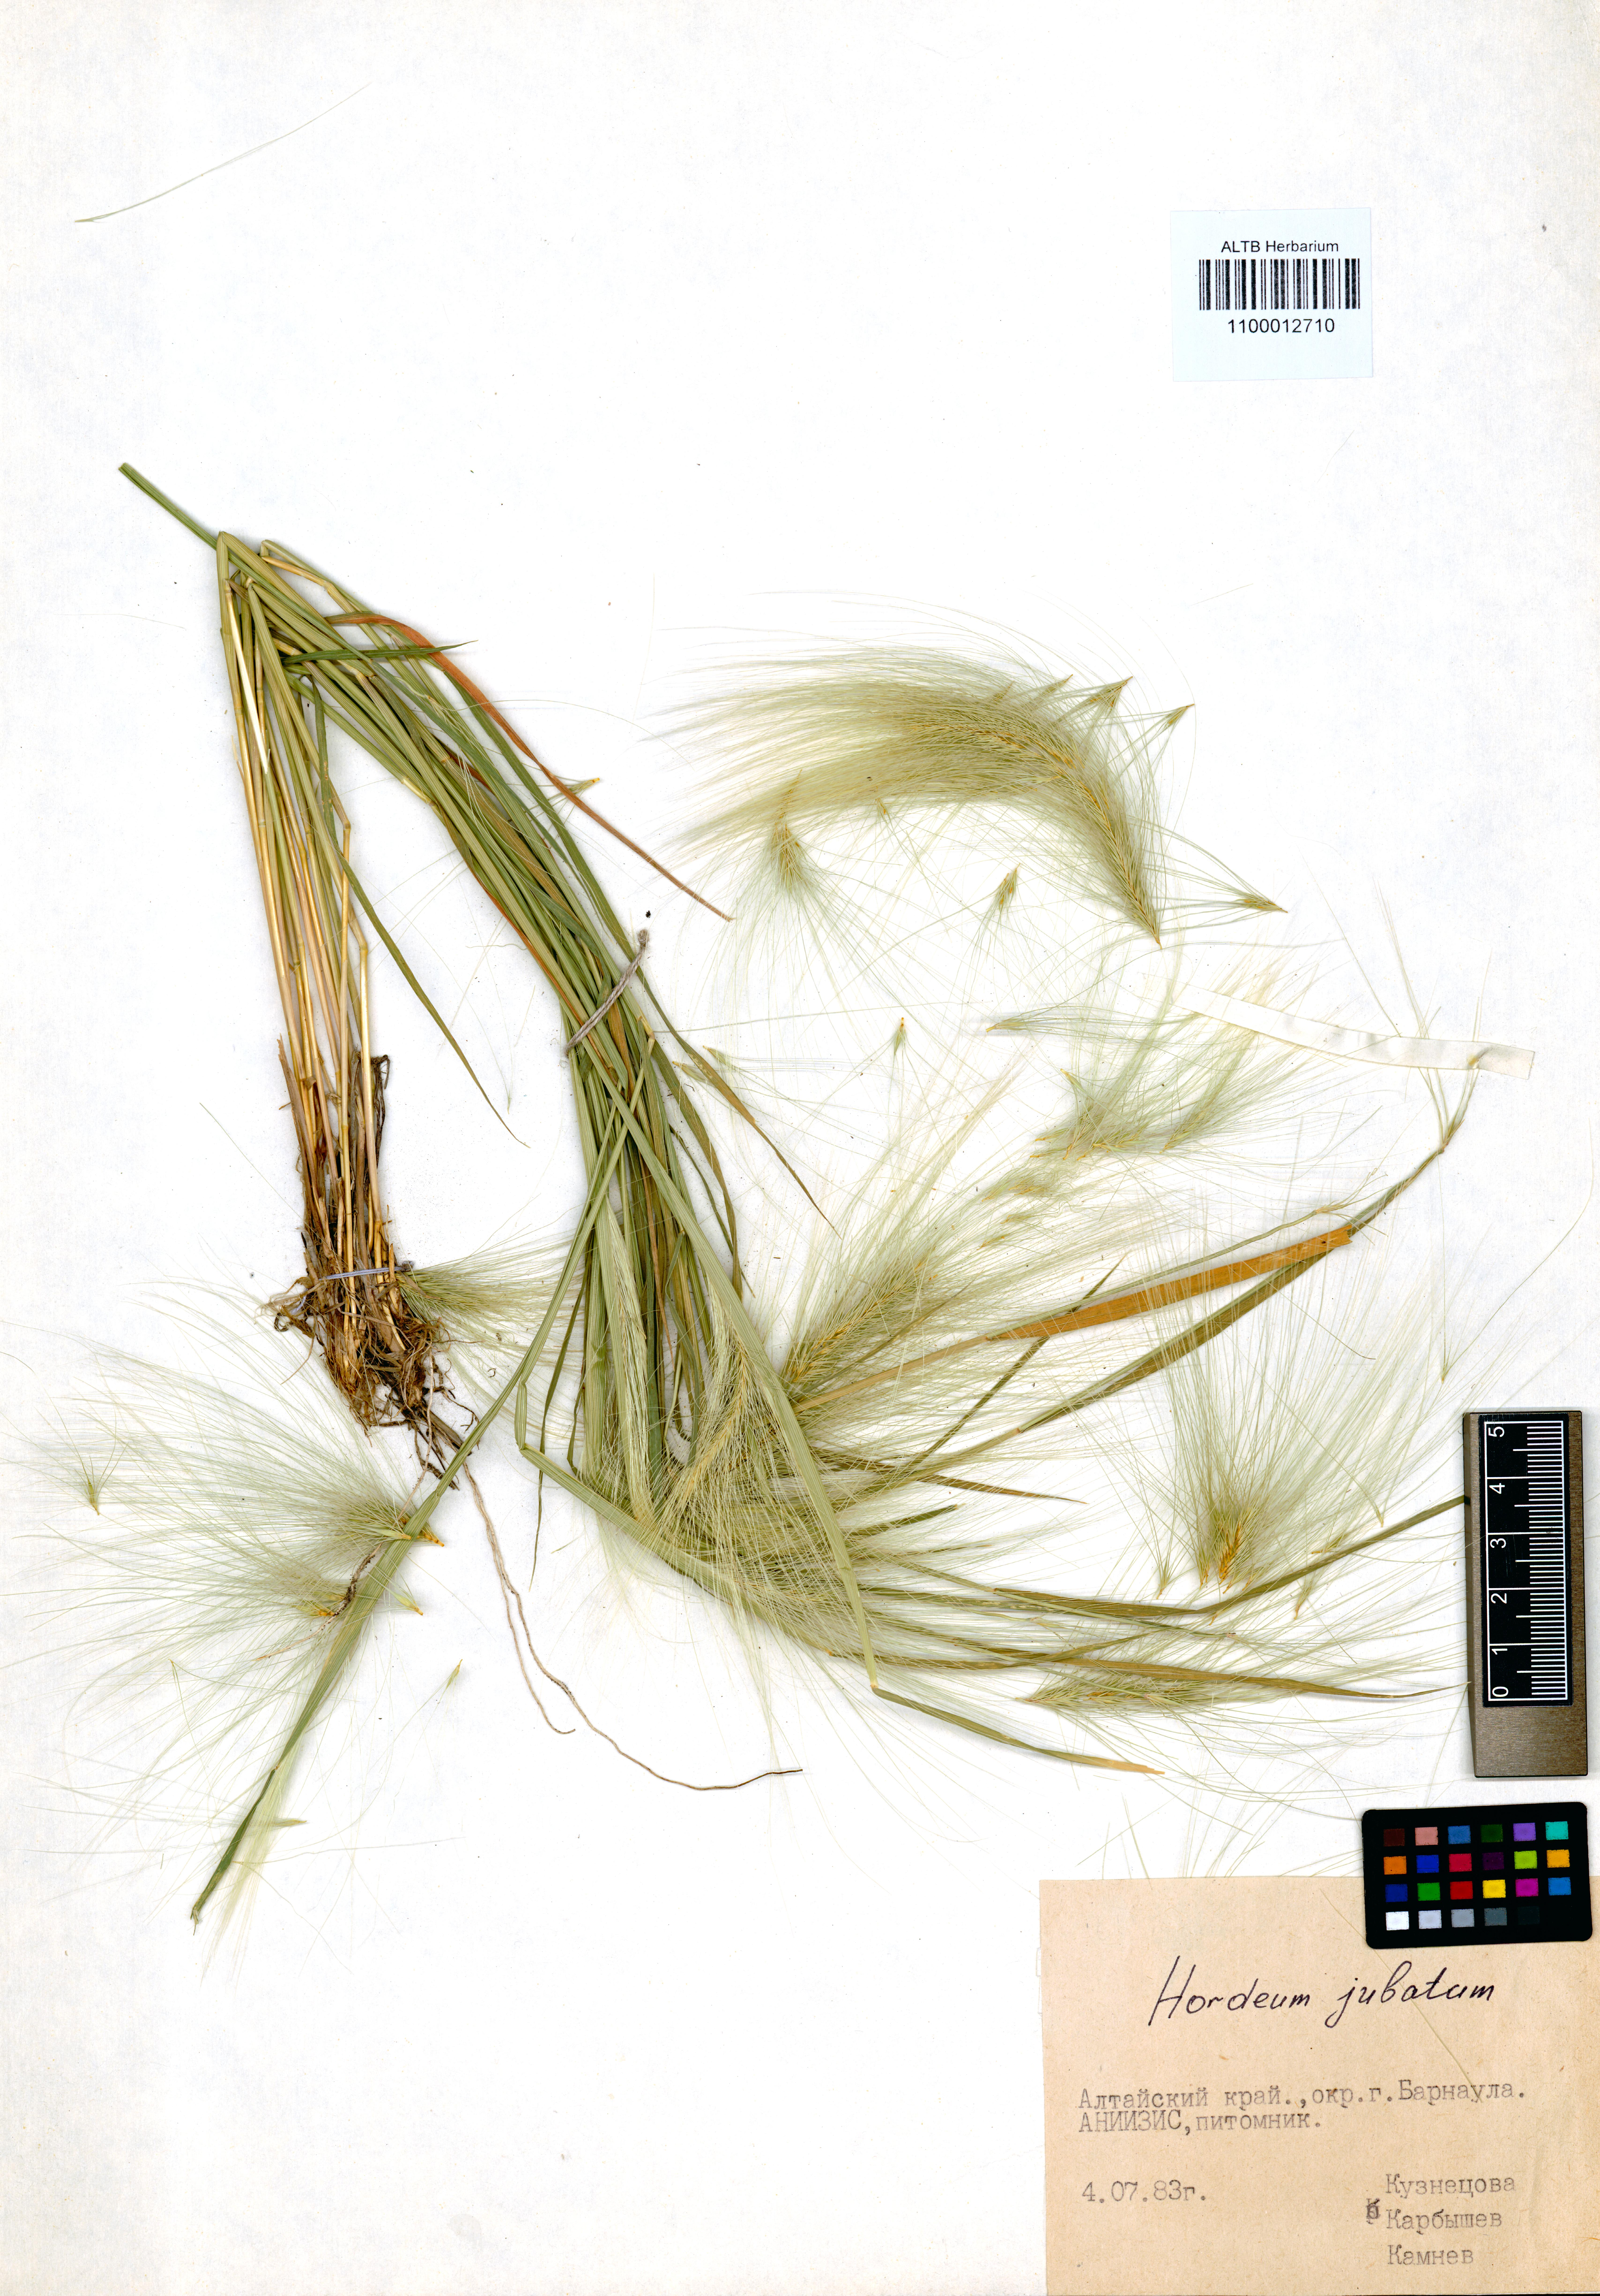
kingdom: Plantae
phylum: Tracheophyta
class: Liliopsida
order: Poales
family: Poaceae
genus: Hordeum
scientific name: Hordeum jubatum
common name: Foxtail barley
